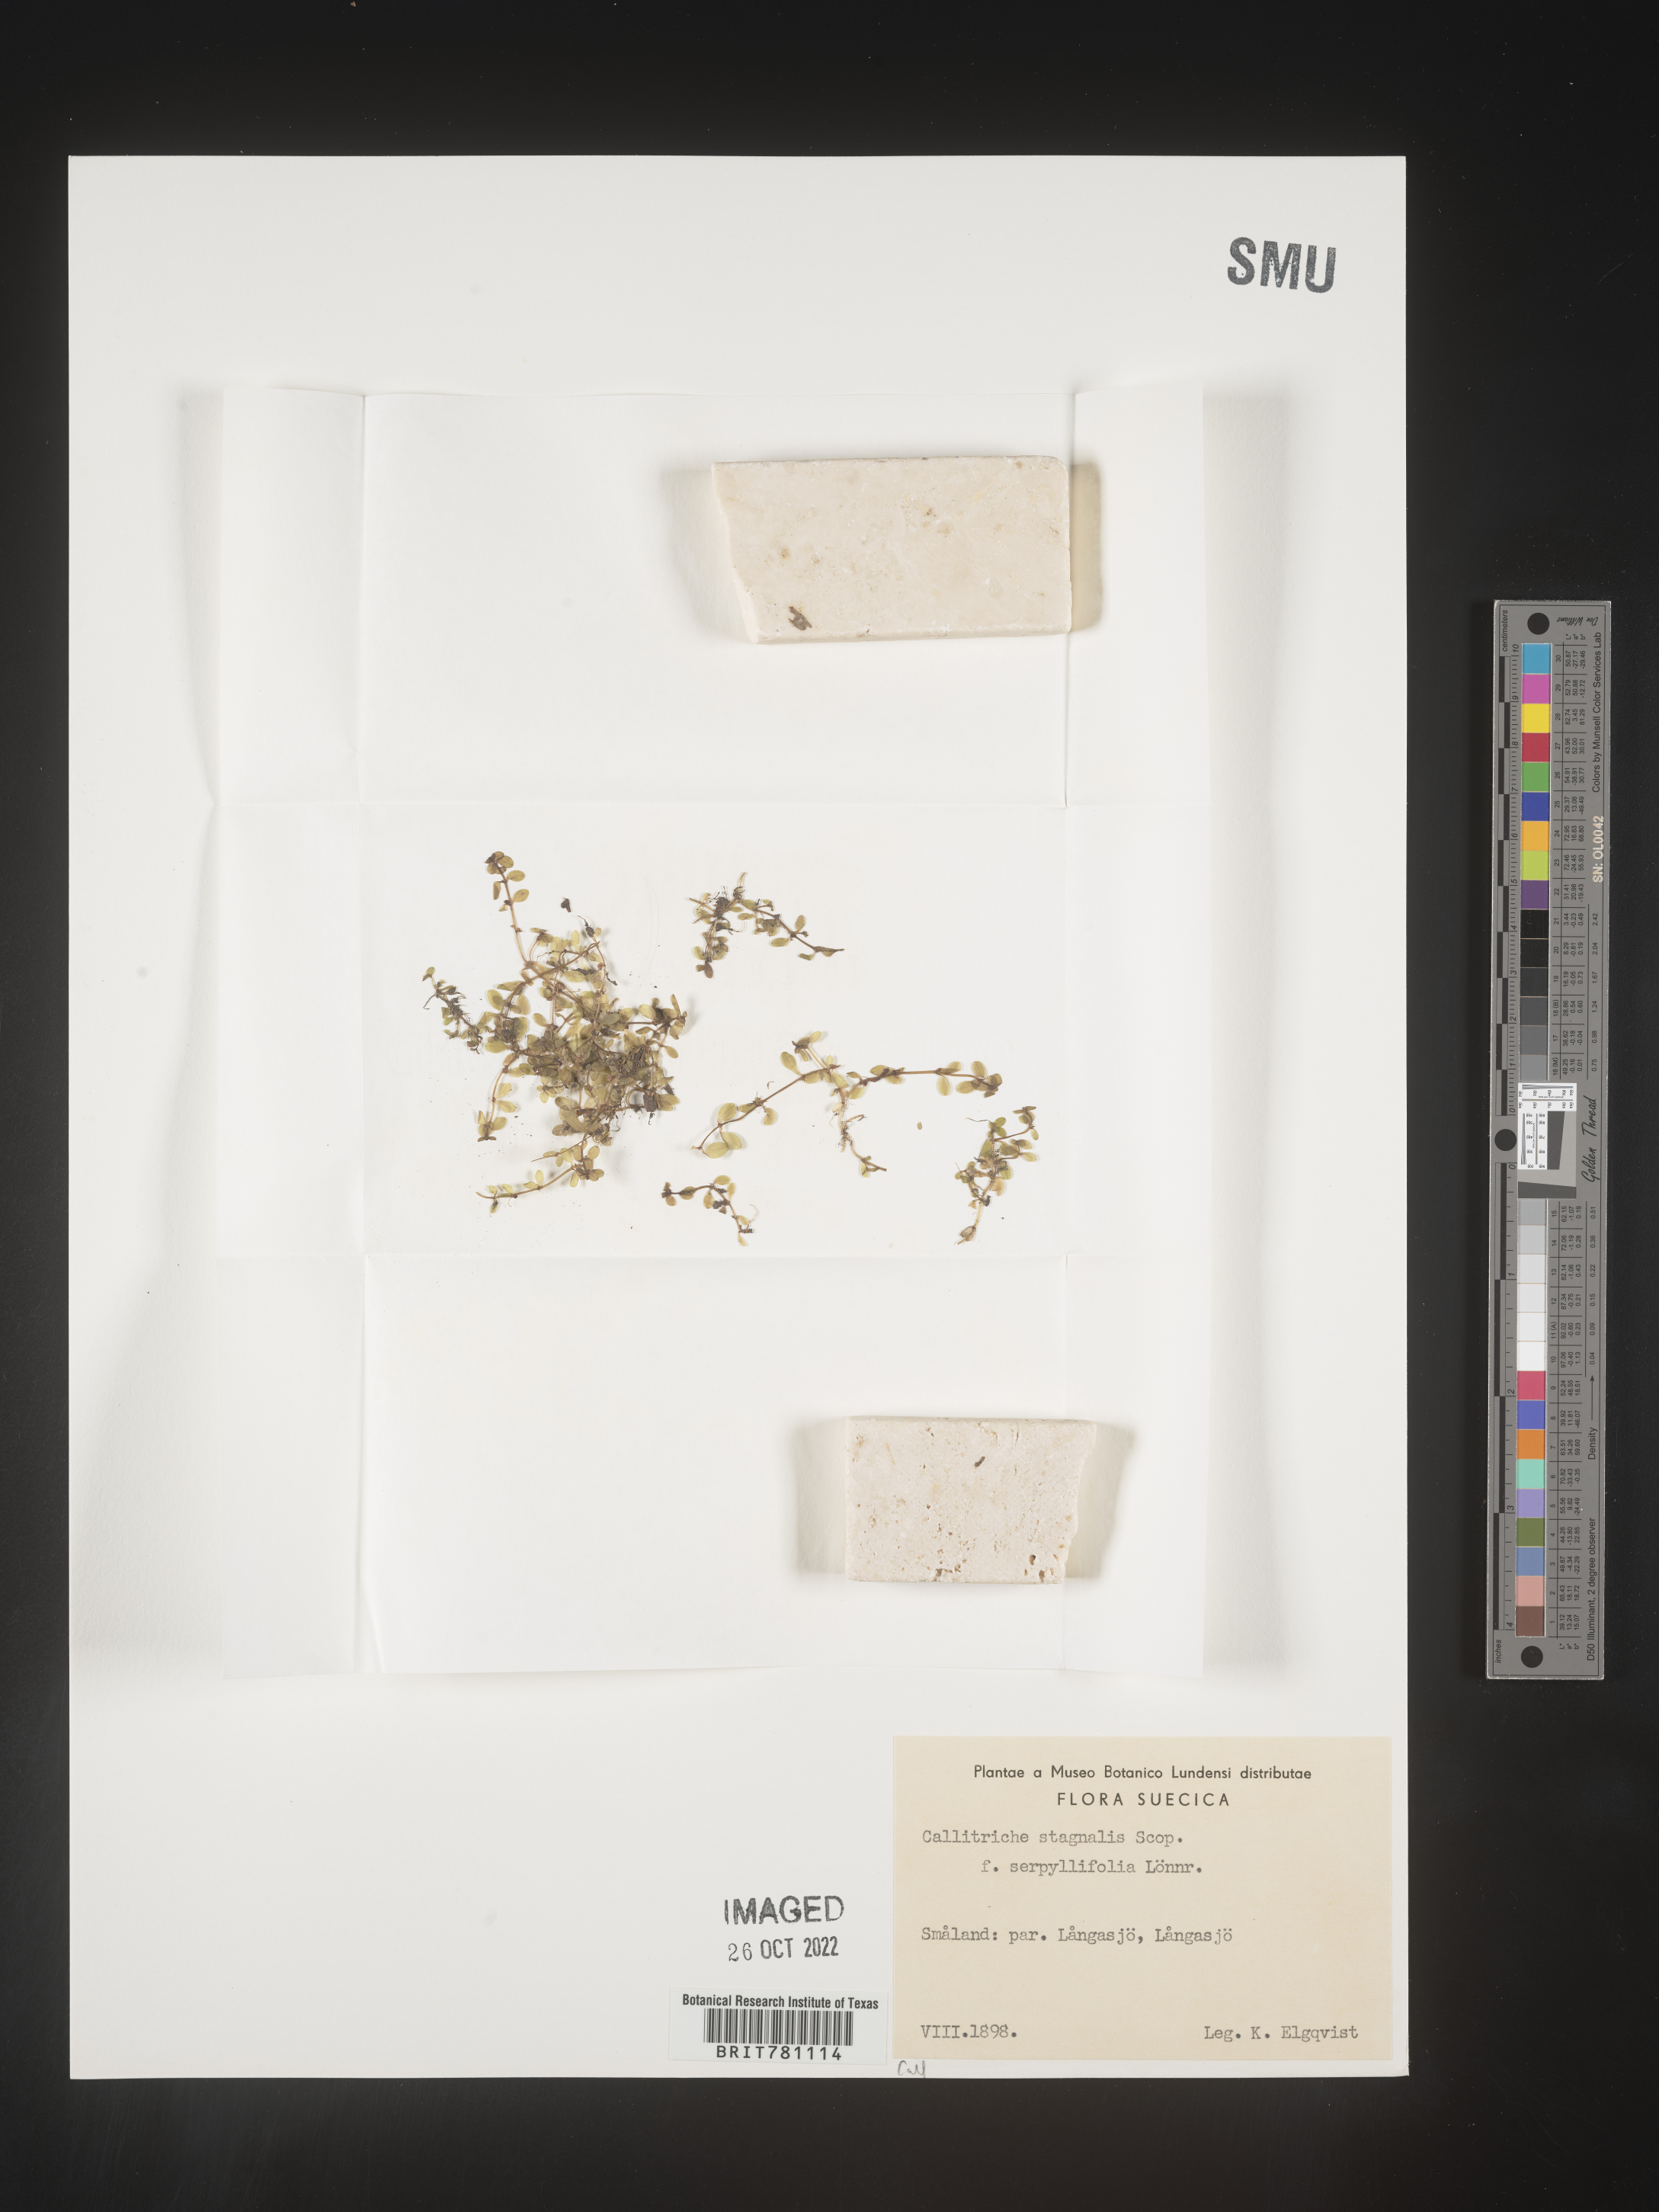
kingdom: Plantae
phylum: Tracheophyta
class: Magnoliopsida
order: Lamiales
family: Plantaginaceae
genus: Callitriche
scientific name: Callitriche
